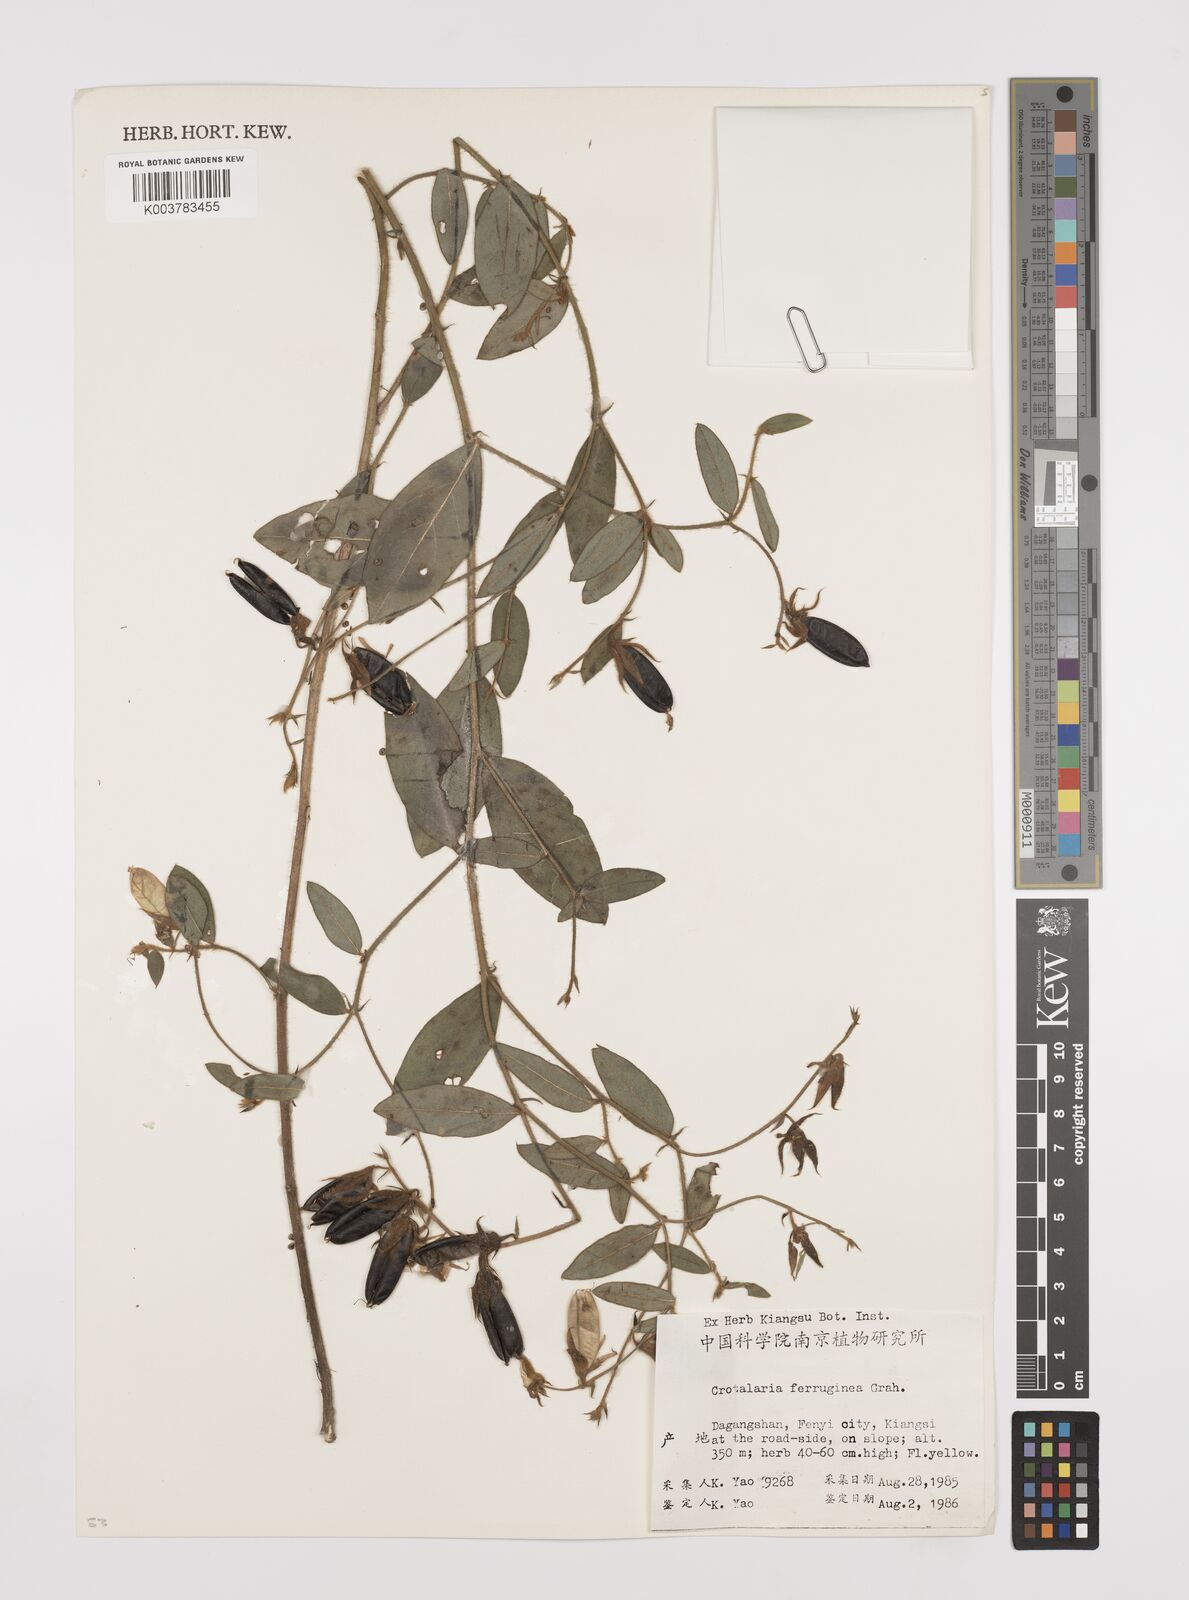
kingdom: Plantae
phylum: Tracheophyta
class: Magnoliopsida
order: Fabales
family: Fabaceae
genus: Crotalaria
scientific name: Crotalaria lejoloba
